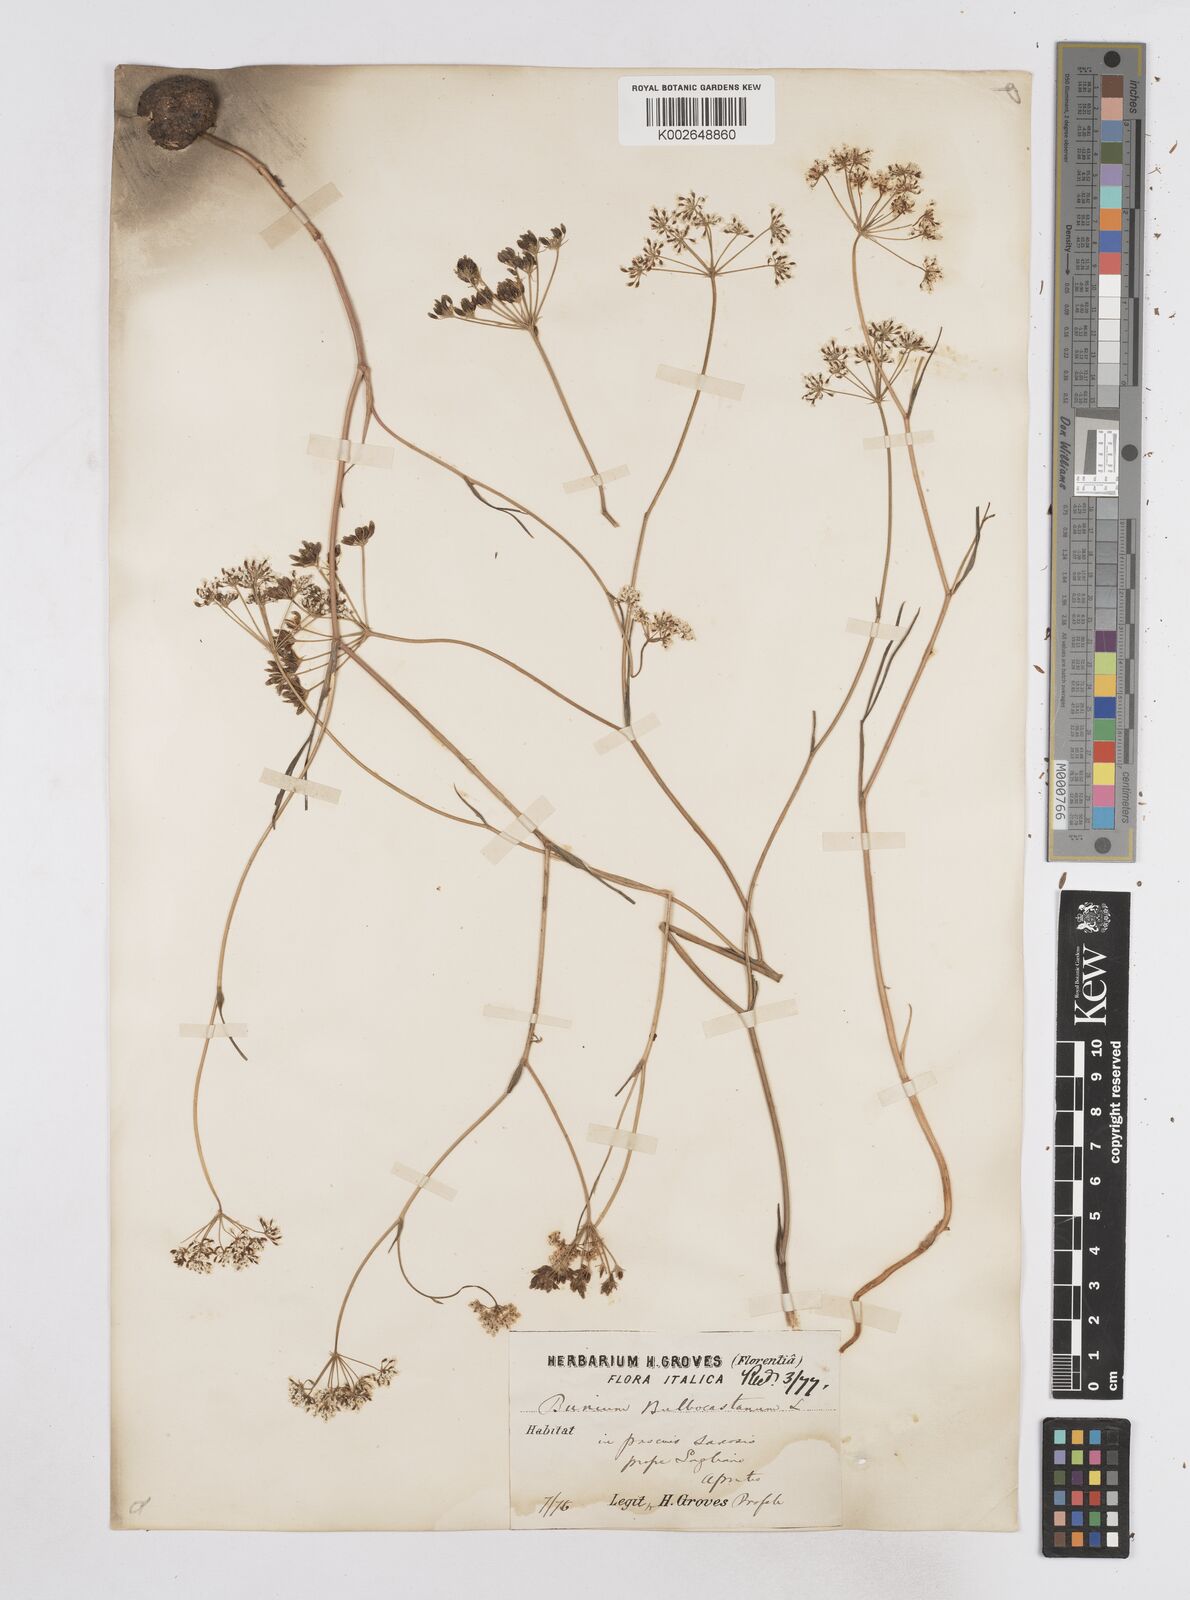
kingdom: Plantae
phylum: Tracheophyta
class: Magnoliopsida
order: Apiales
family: Apiaceae
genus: Bunium
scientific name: Bunium bulbocastanum
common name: Great pignut
